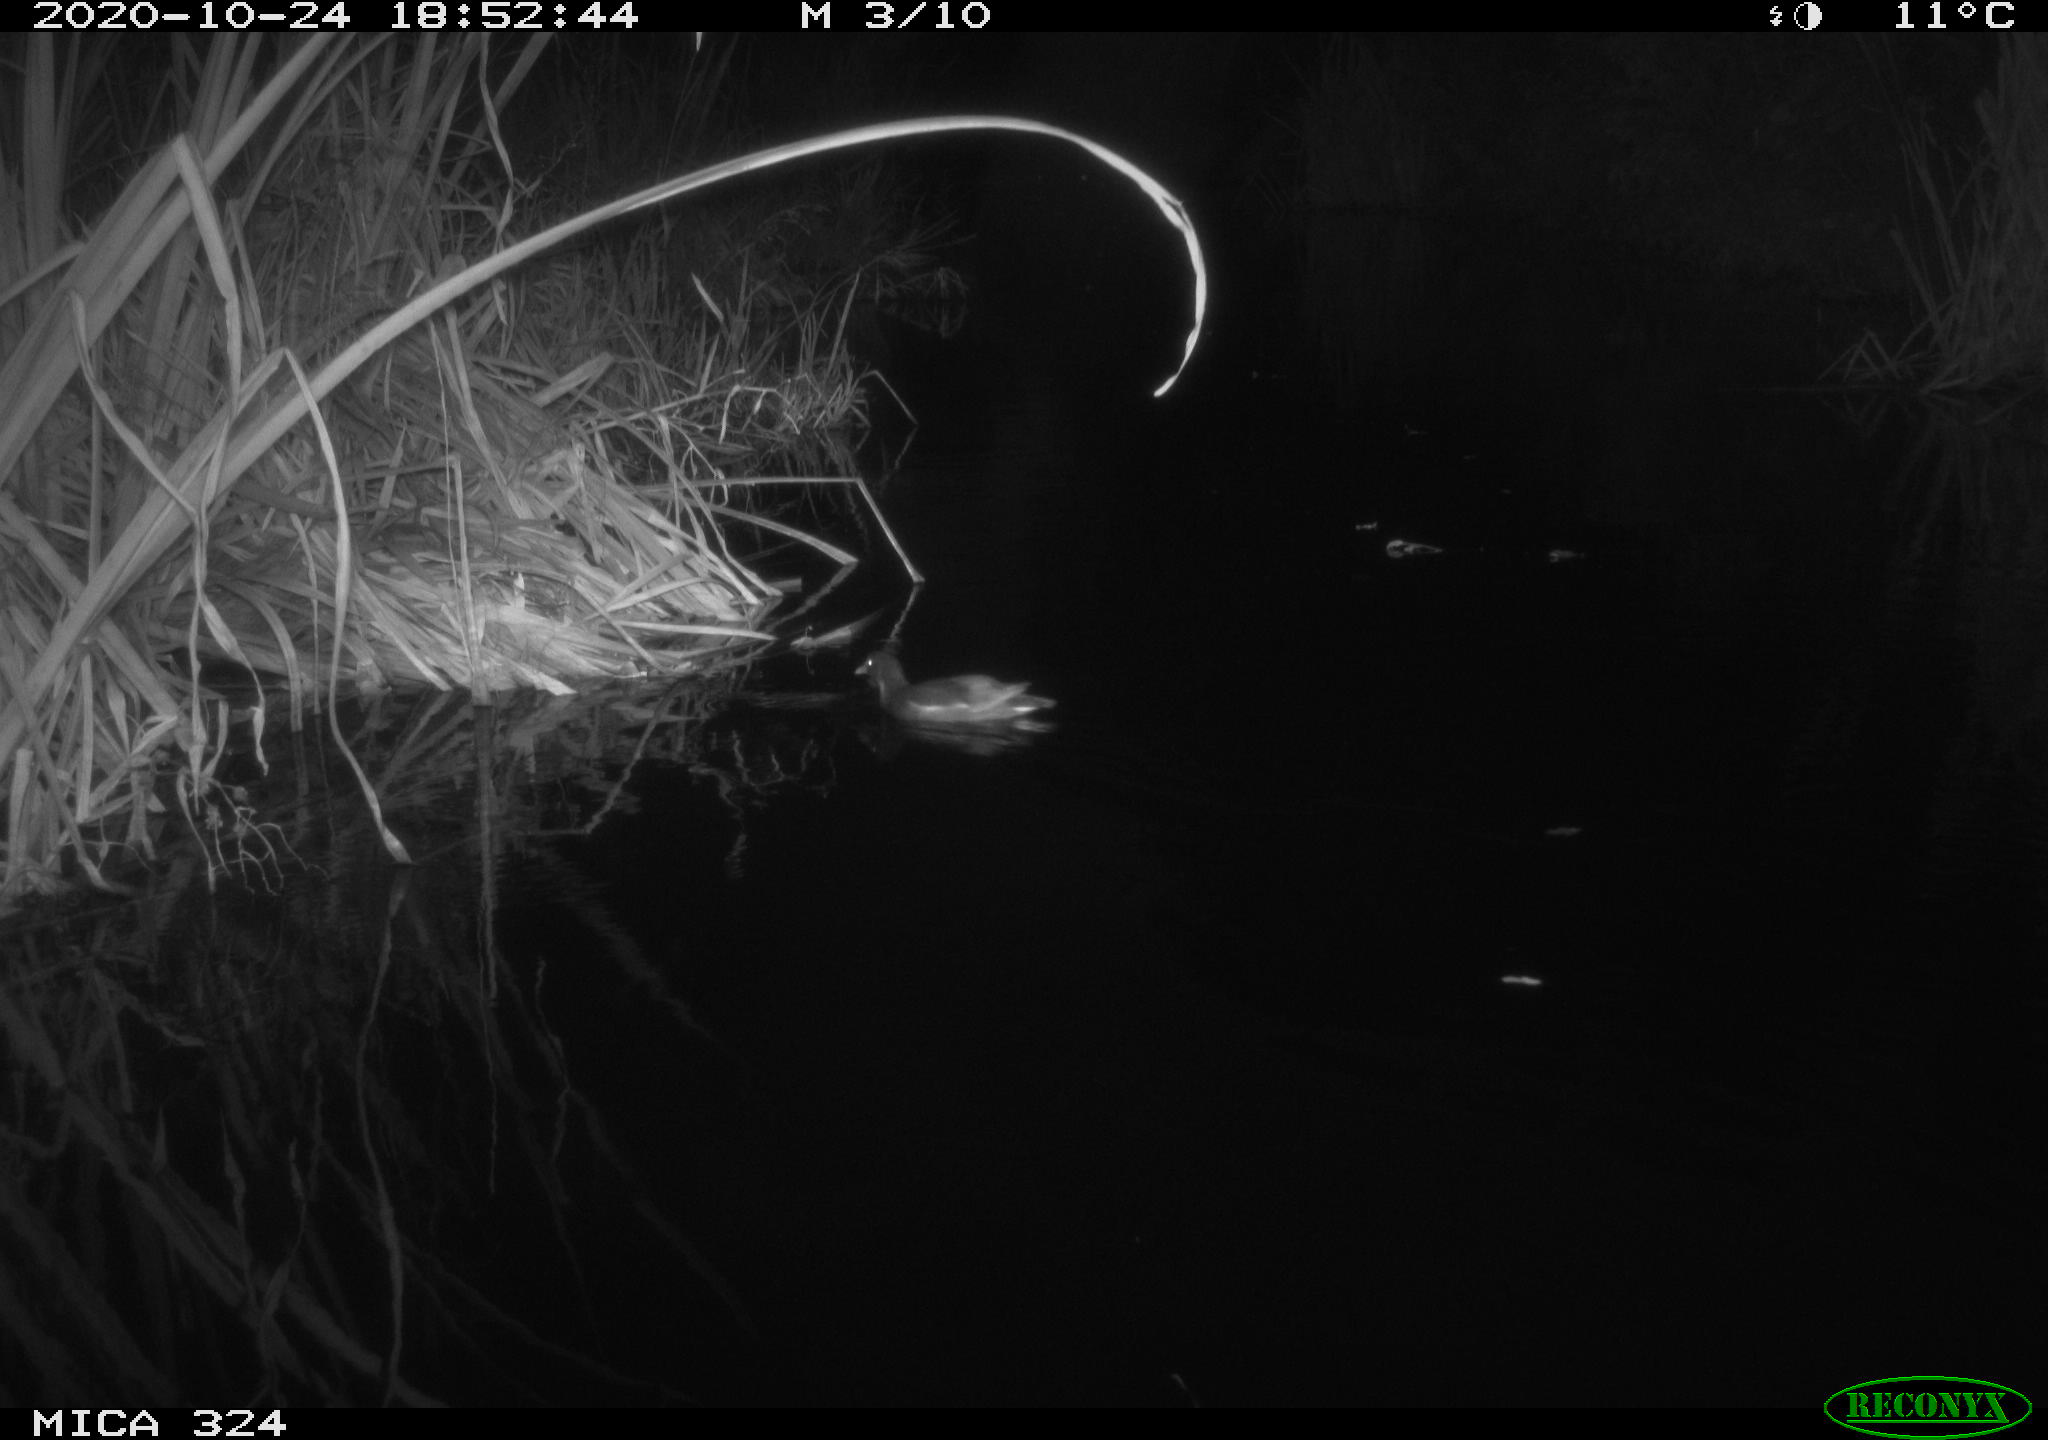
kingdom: Animalia
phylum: Chordata
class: Aves
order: Gruiformes
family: Rallidae
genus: Gallinula
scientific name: Gallinula chloropus
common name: Common moorhen
